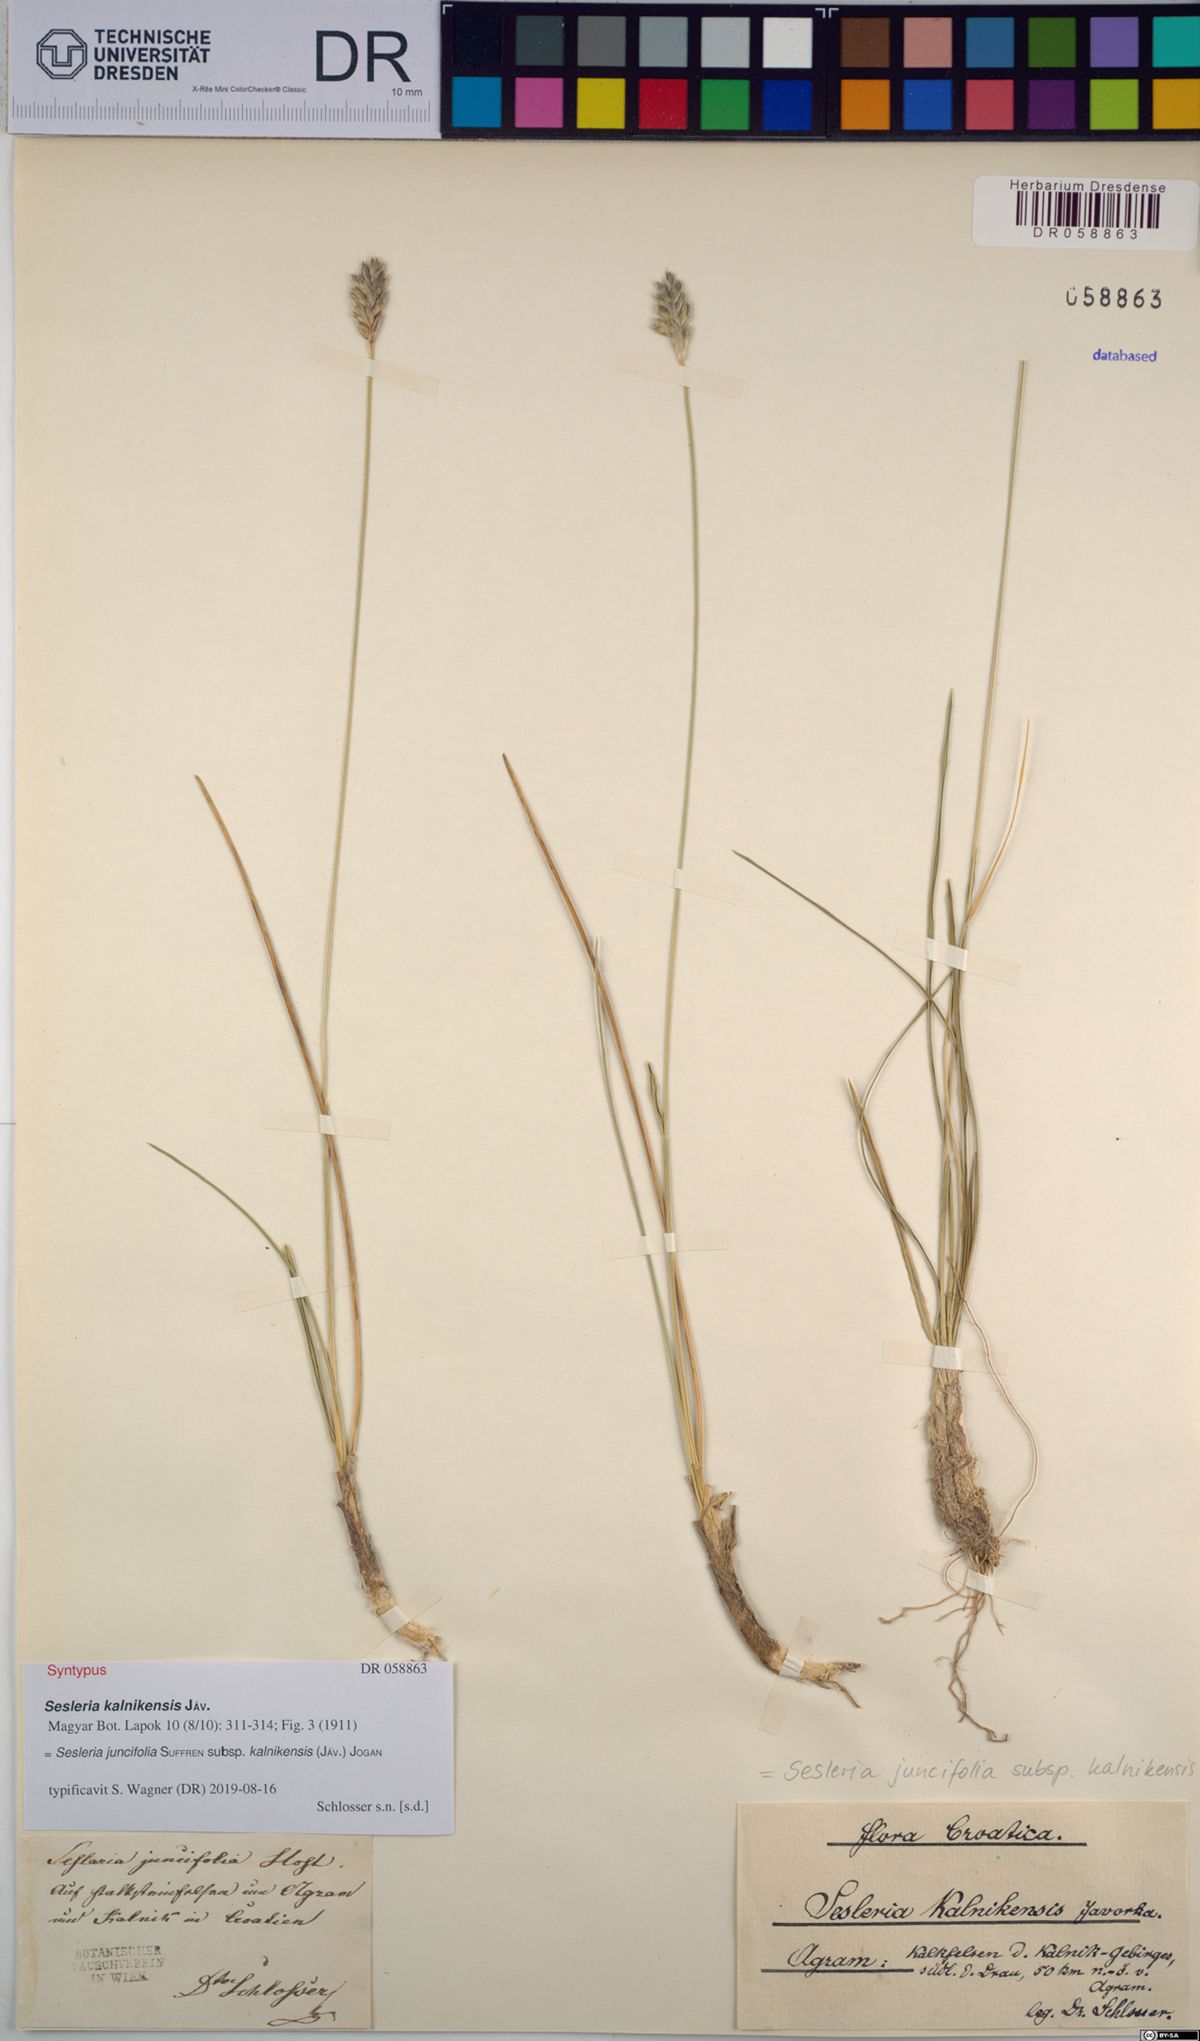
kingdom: Plantae
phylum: Tracheophyta
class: Liliopsida
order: Poales
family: Poaceae
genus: Sesleria
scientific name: Sesleria juncifolia
